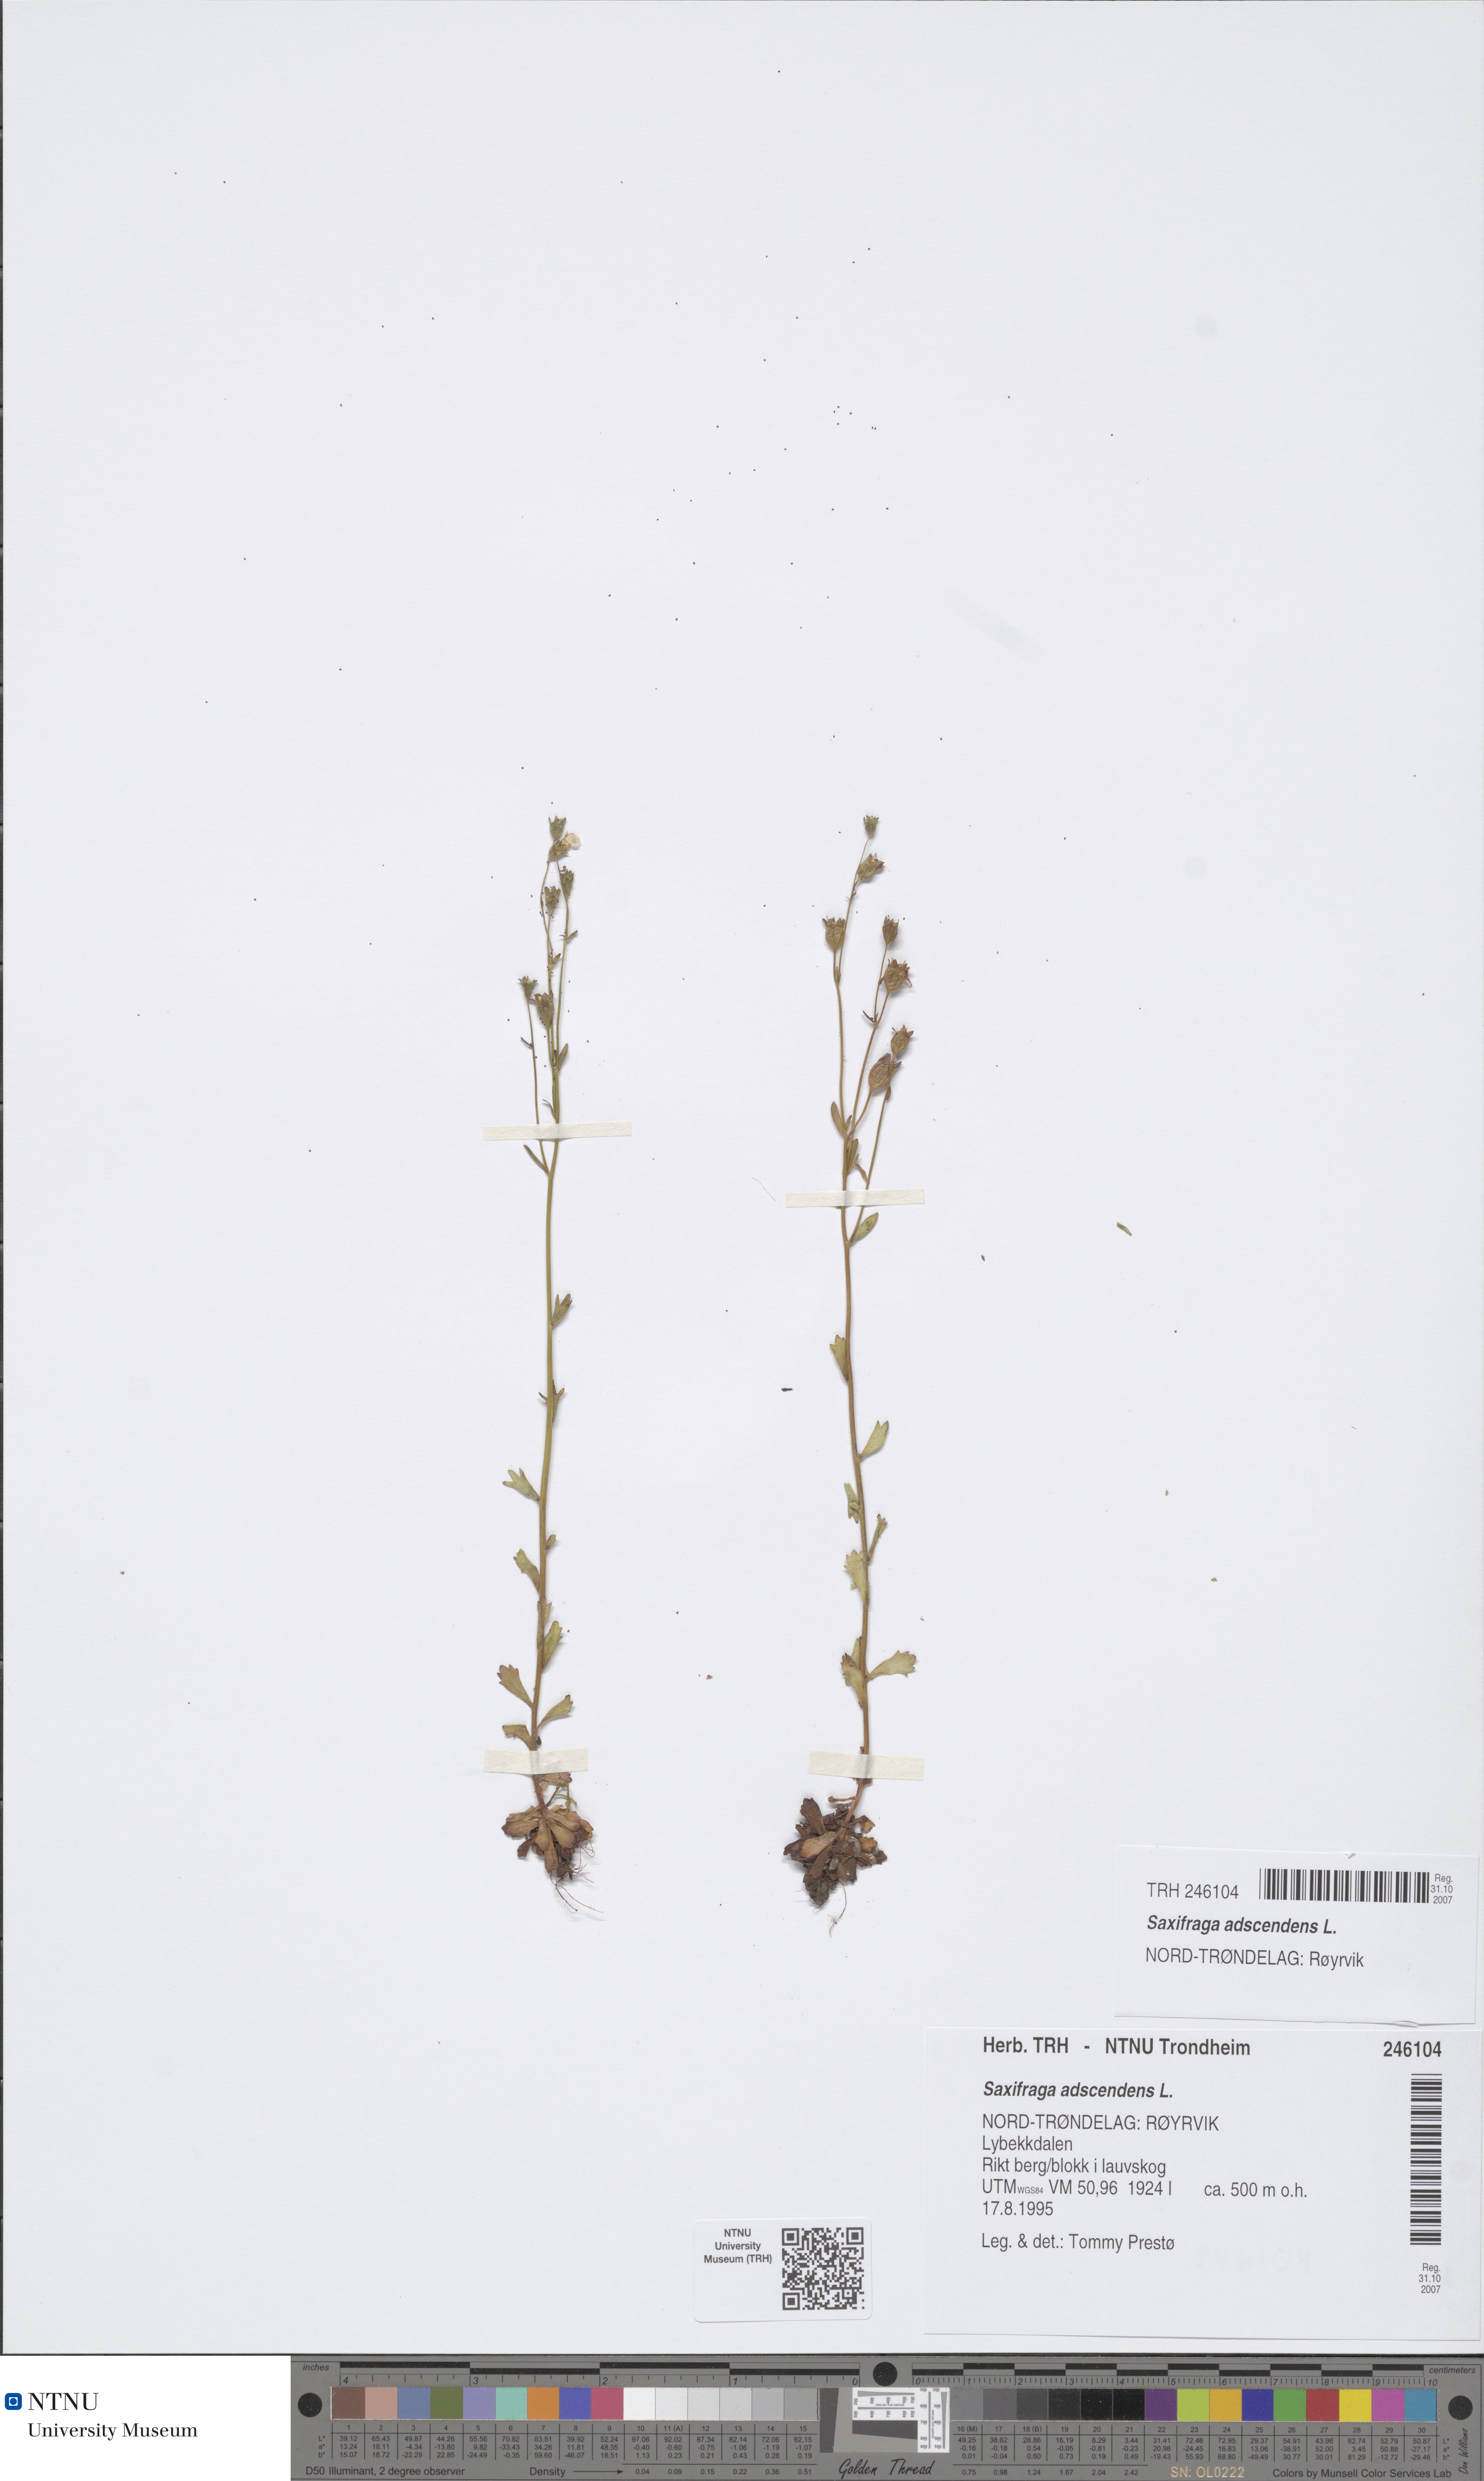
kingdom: Plantae
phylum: Tracheophyta
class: Magnoliopsida
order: Saxifragales
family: Saxifragaceae
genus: Saxifraga
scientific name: Saxifraga adscendens
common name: Ascending saxifrage
